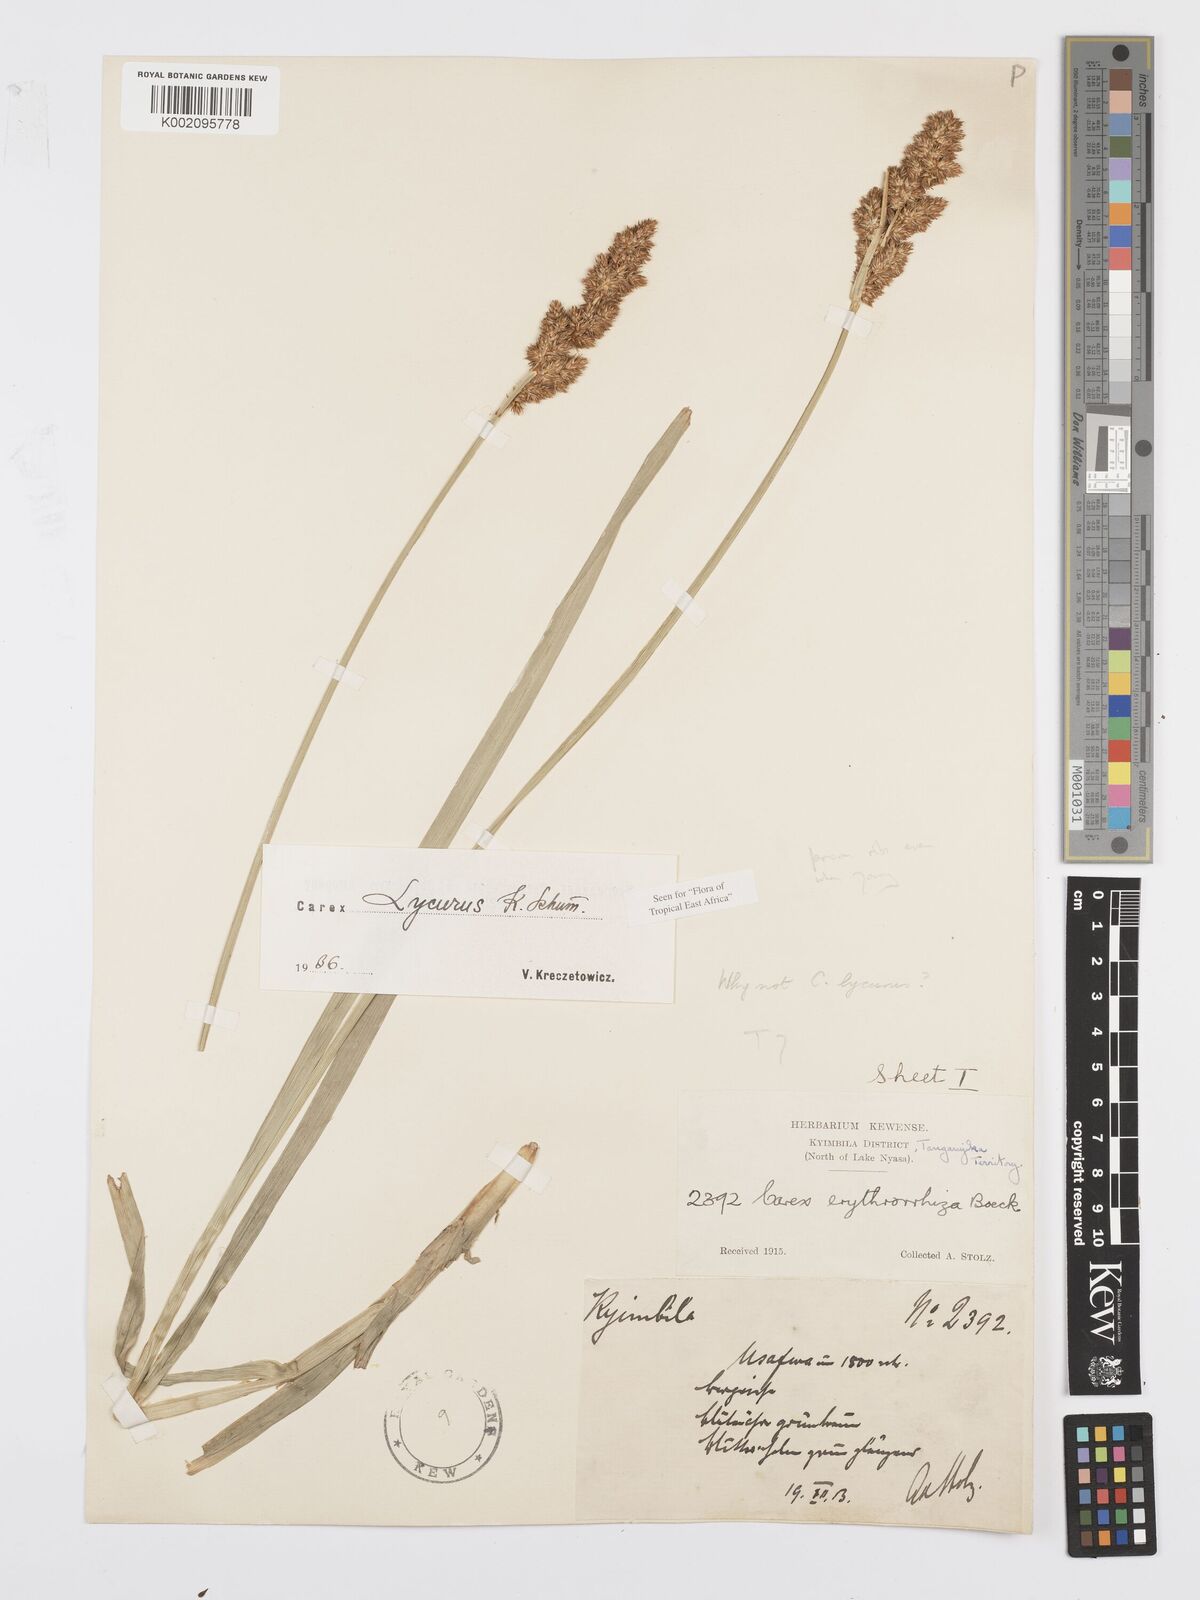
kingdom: Plantae
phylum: Tracheophyta
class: Liliopsida
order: Poales
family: Cyperaceae
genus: Carex
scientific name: Carex lycurus
